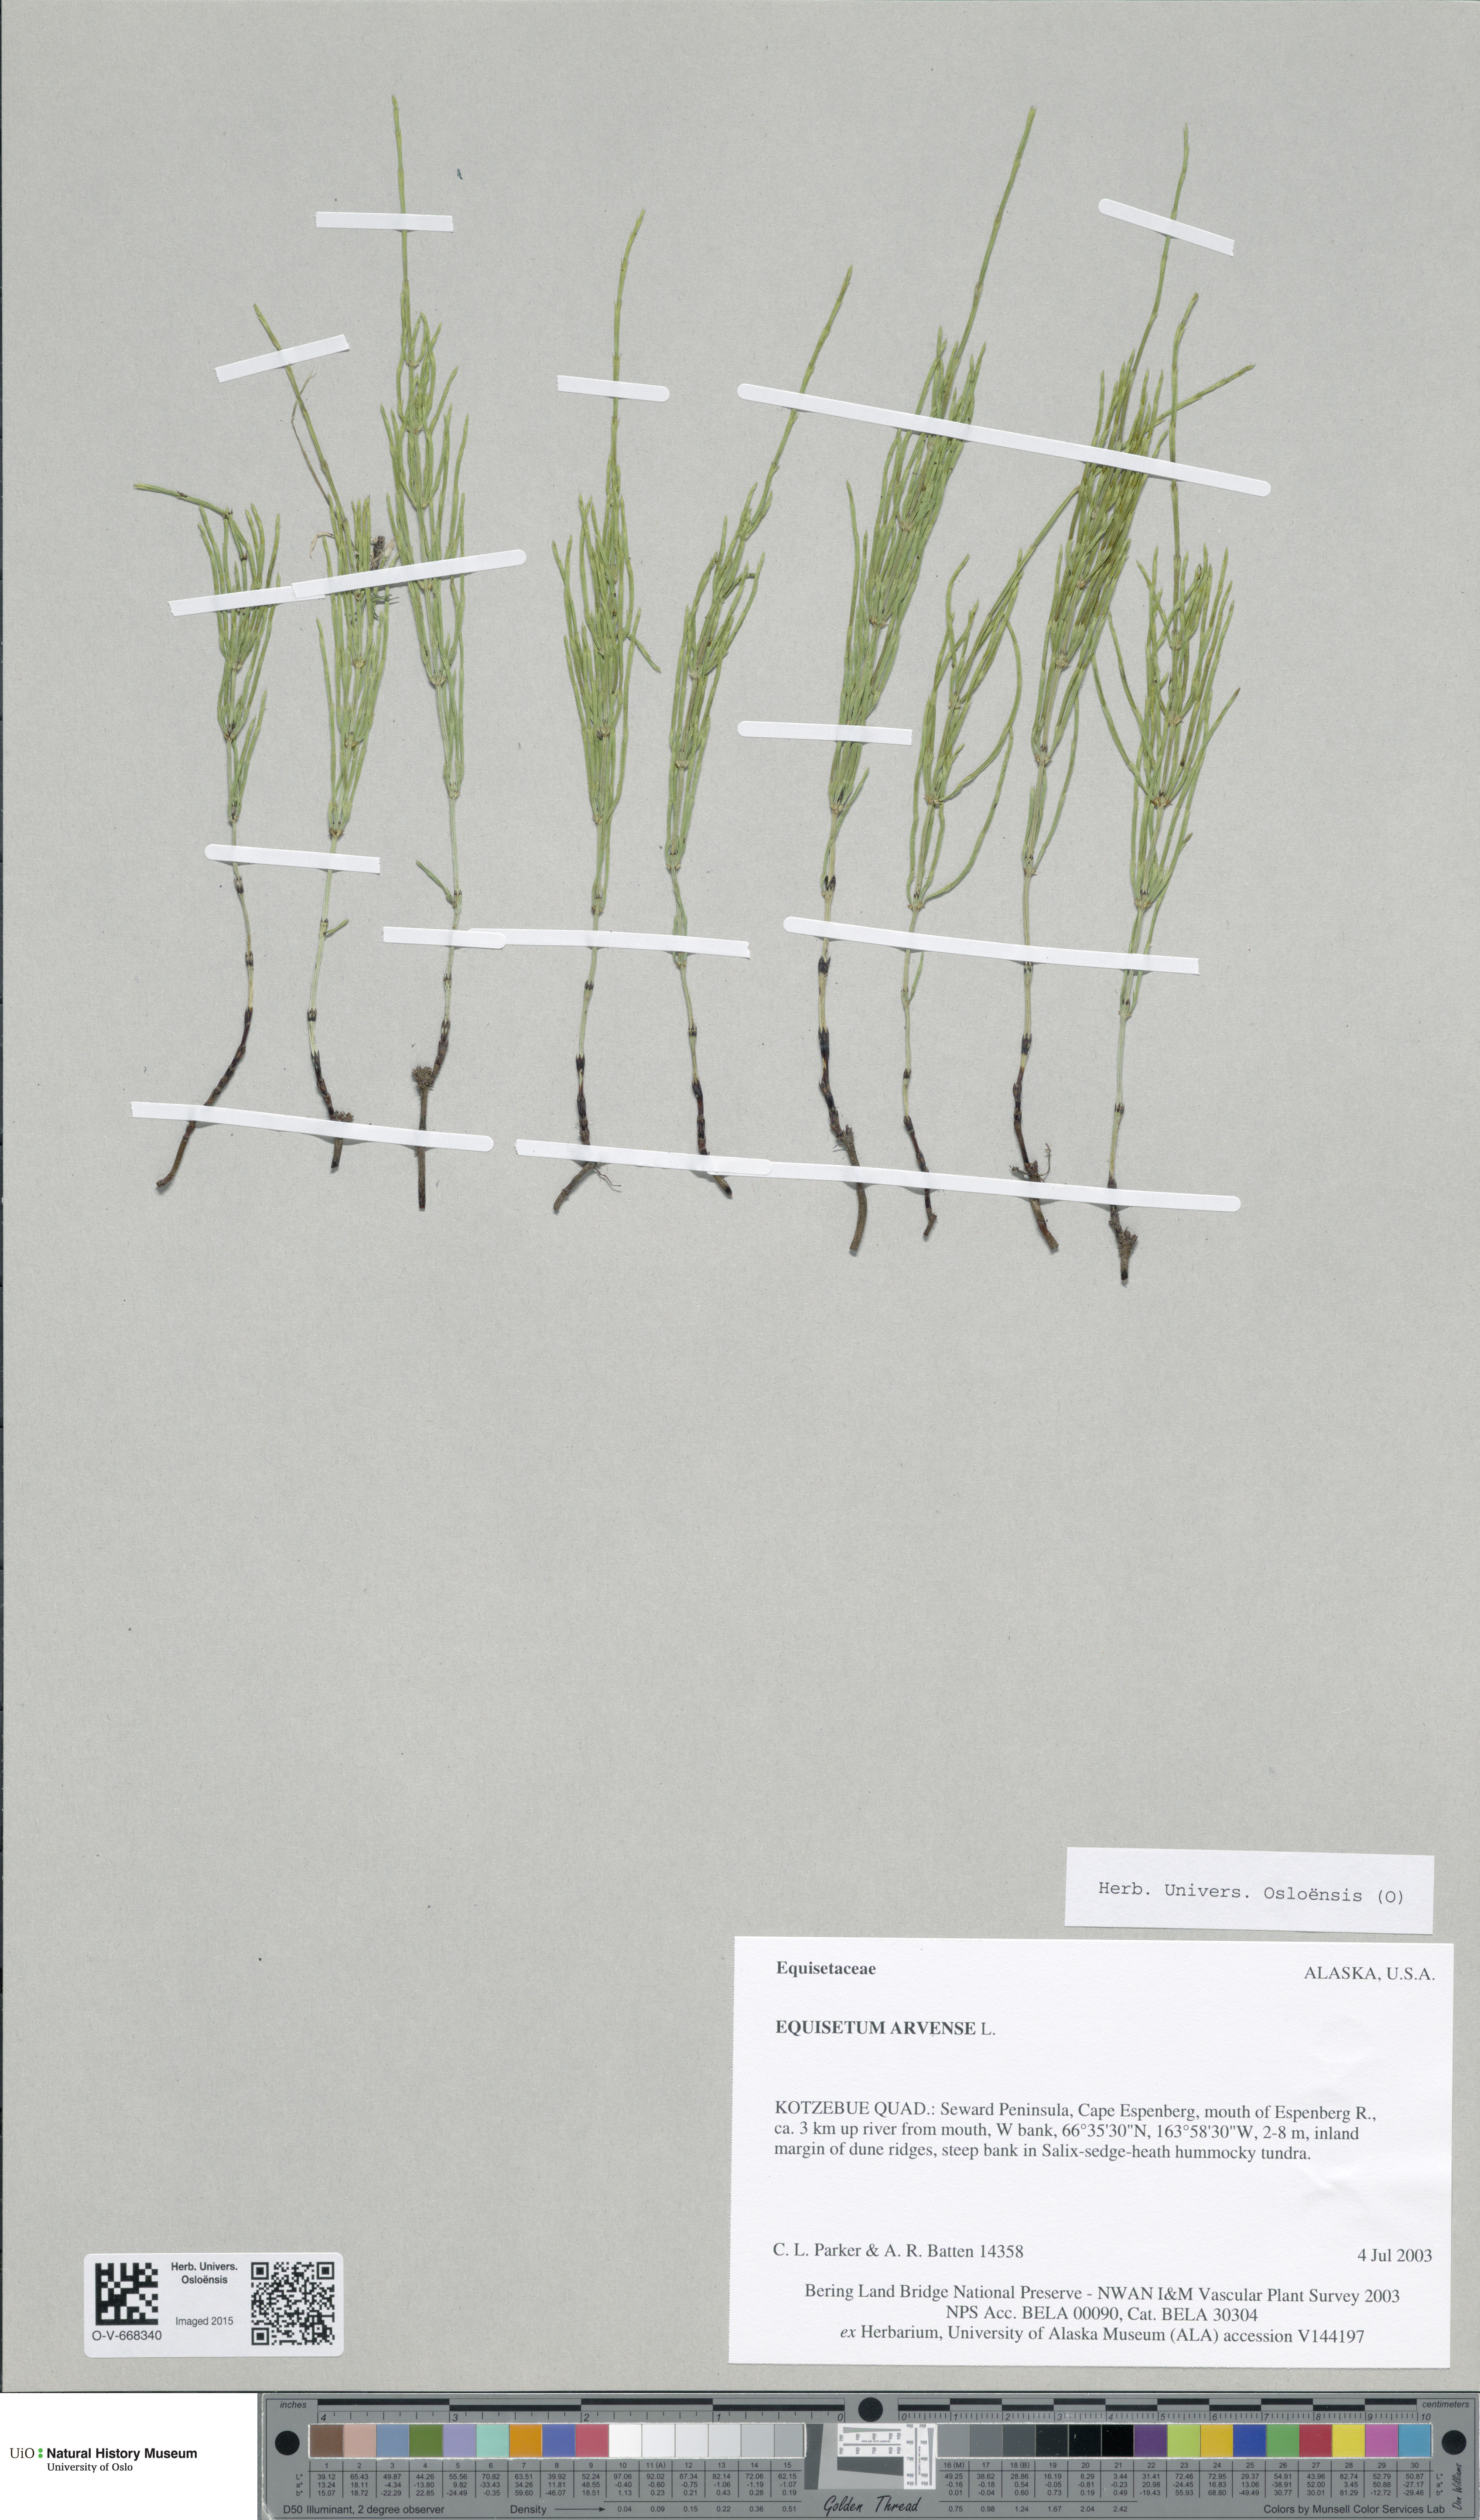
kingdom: Plantae
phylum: Tracheophyta
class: Polypodiopsida
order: Equisetales
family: Equisetaceae
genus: Equisetum
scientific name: Equisetum arvense
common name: Field horsetail
